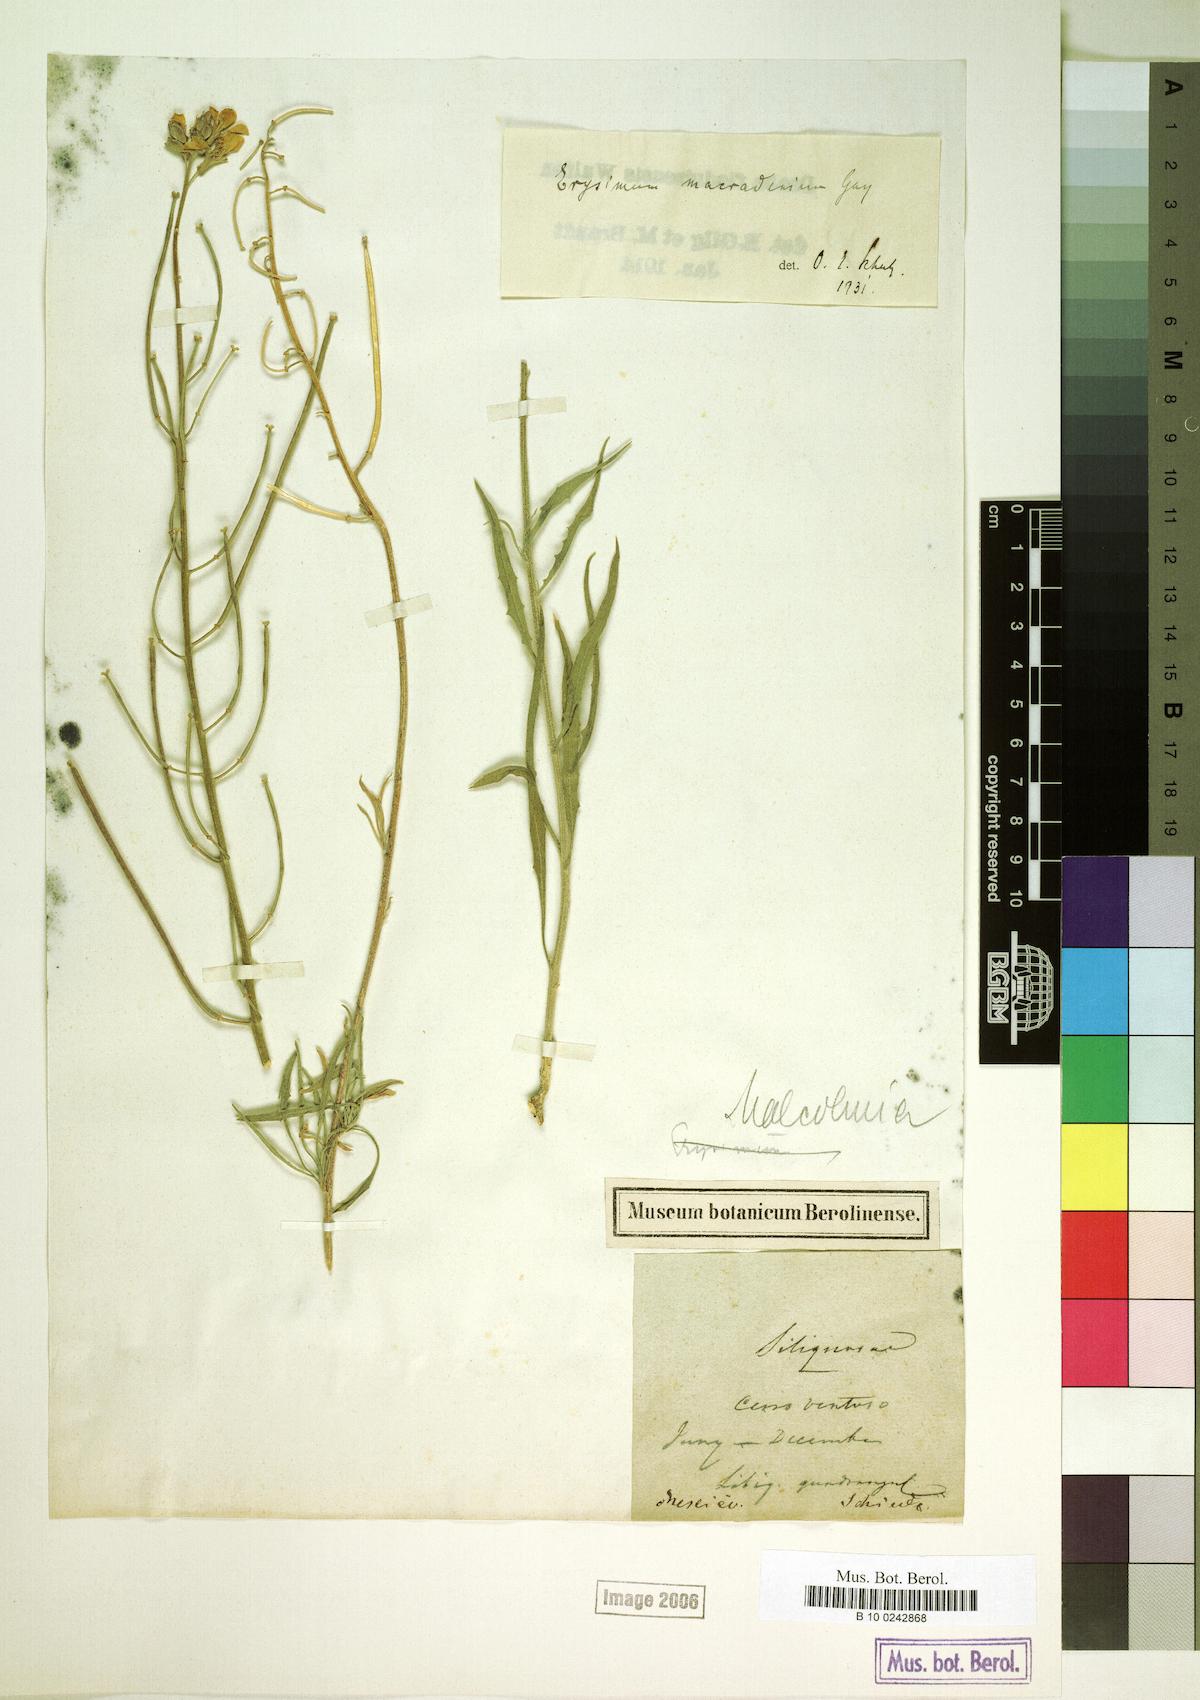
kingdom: Plantae
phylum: Tracheophyta
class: Magnoliopsida
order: Brassicales
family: Brassicaceae
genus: Erysimum
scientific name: Erysimum capitatum
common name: Western wallflower
